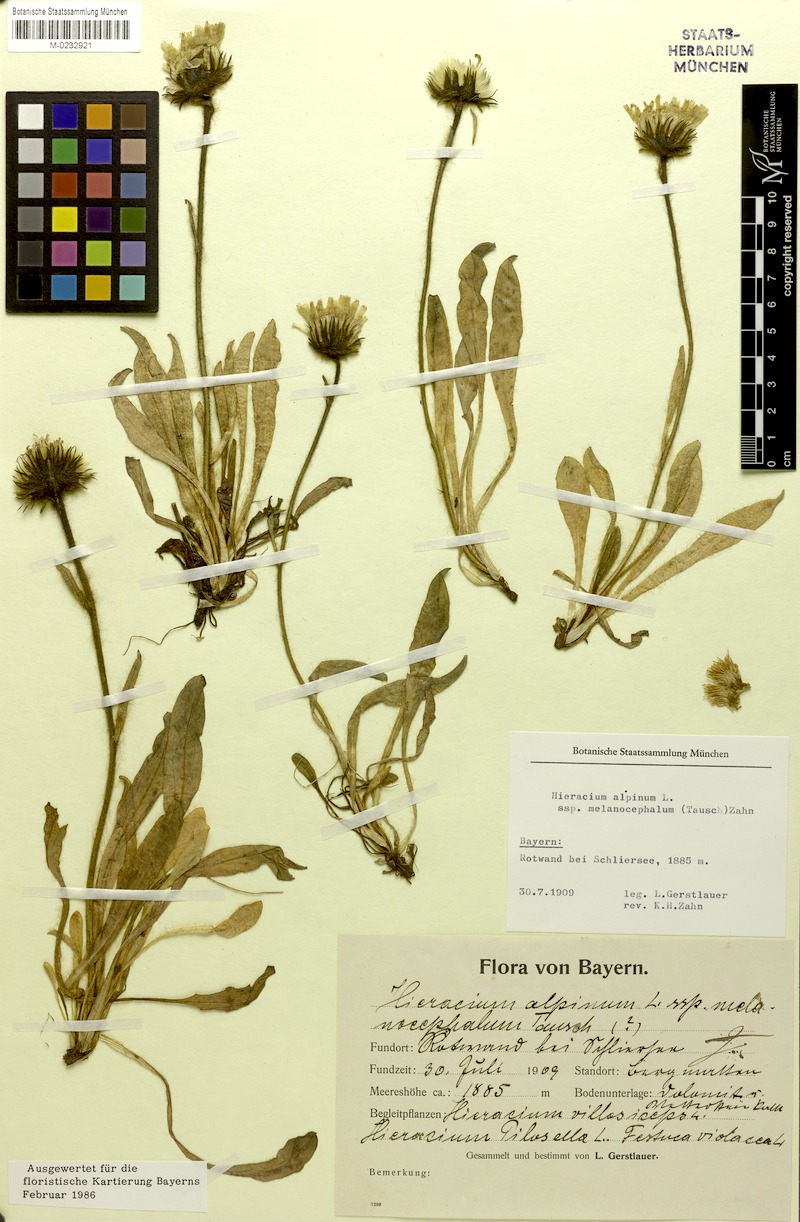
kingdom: Plantae
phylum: Tracheophyta
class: Magnoliopsida
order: Asterales
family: Asteraceae
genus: Hieracium
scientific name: Hieracium alpinum
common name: Alpine hawkweed
